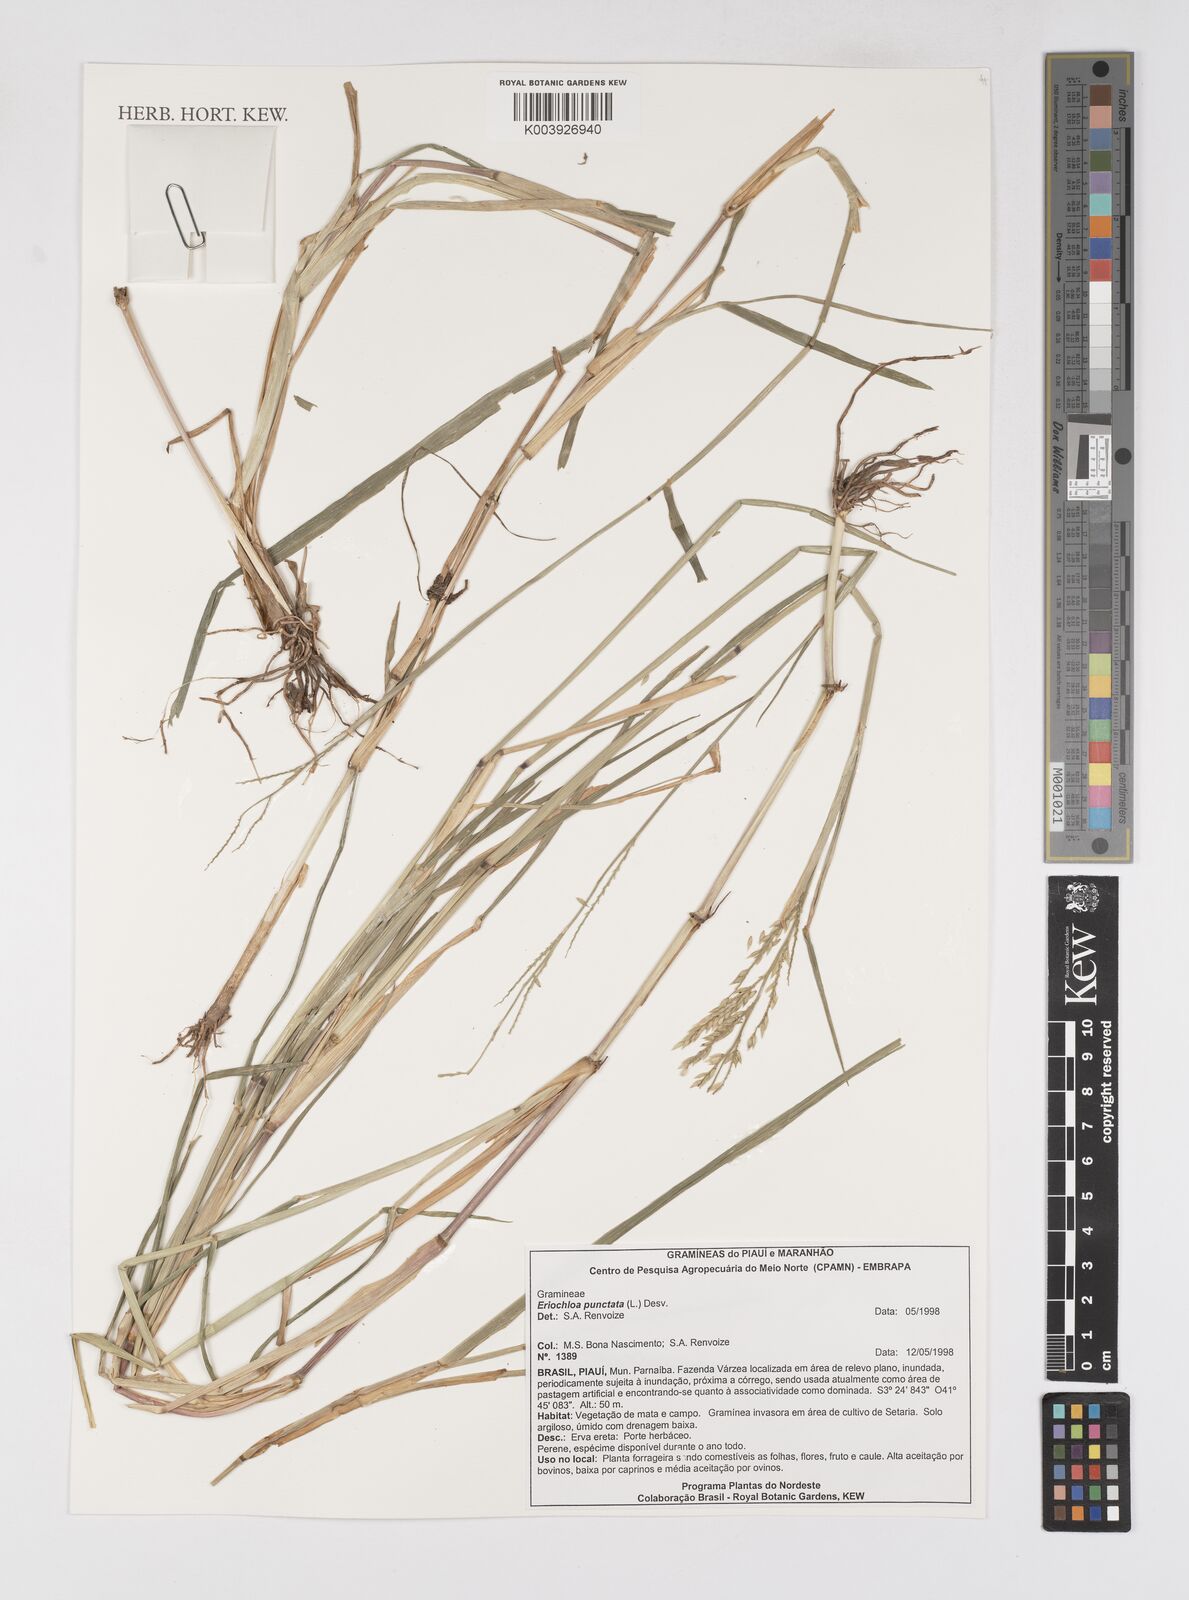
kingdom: Plantae
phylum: Tracheophyta
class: Liliopsida
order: Poales
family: Poaceae
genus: Eriochloa
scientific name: Eriochloa punctata
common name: Louisiana cupgrass
